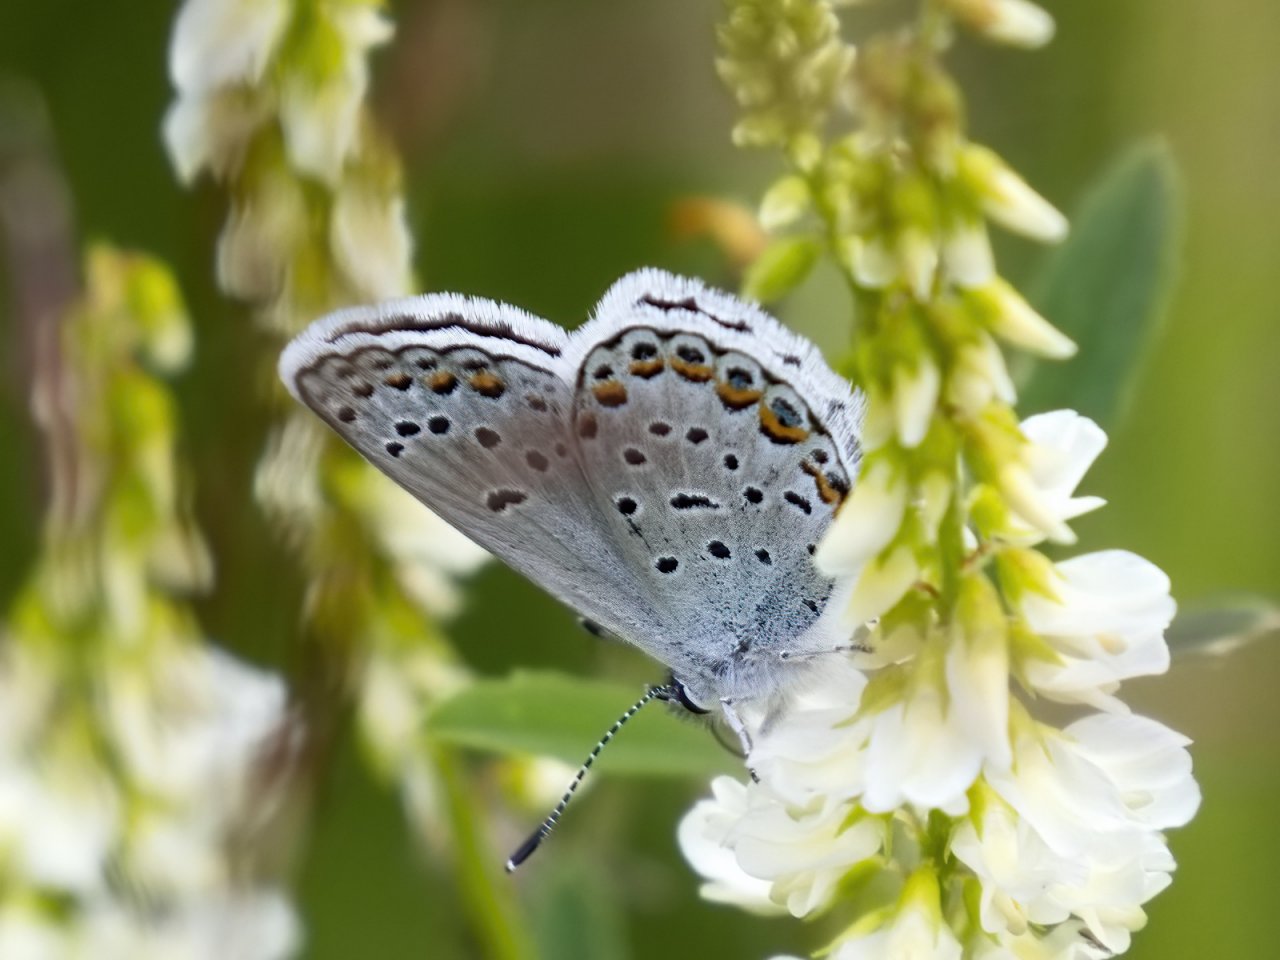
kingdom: Animalia
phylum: Arthropoda
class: Insecta
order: Lepidoptera
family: Lycaenidae
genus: Lycaeides
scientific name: Lycaeides idas
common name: Northern Blue
